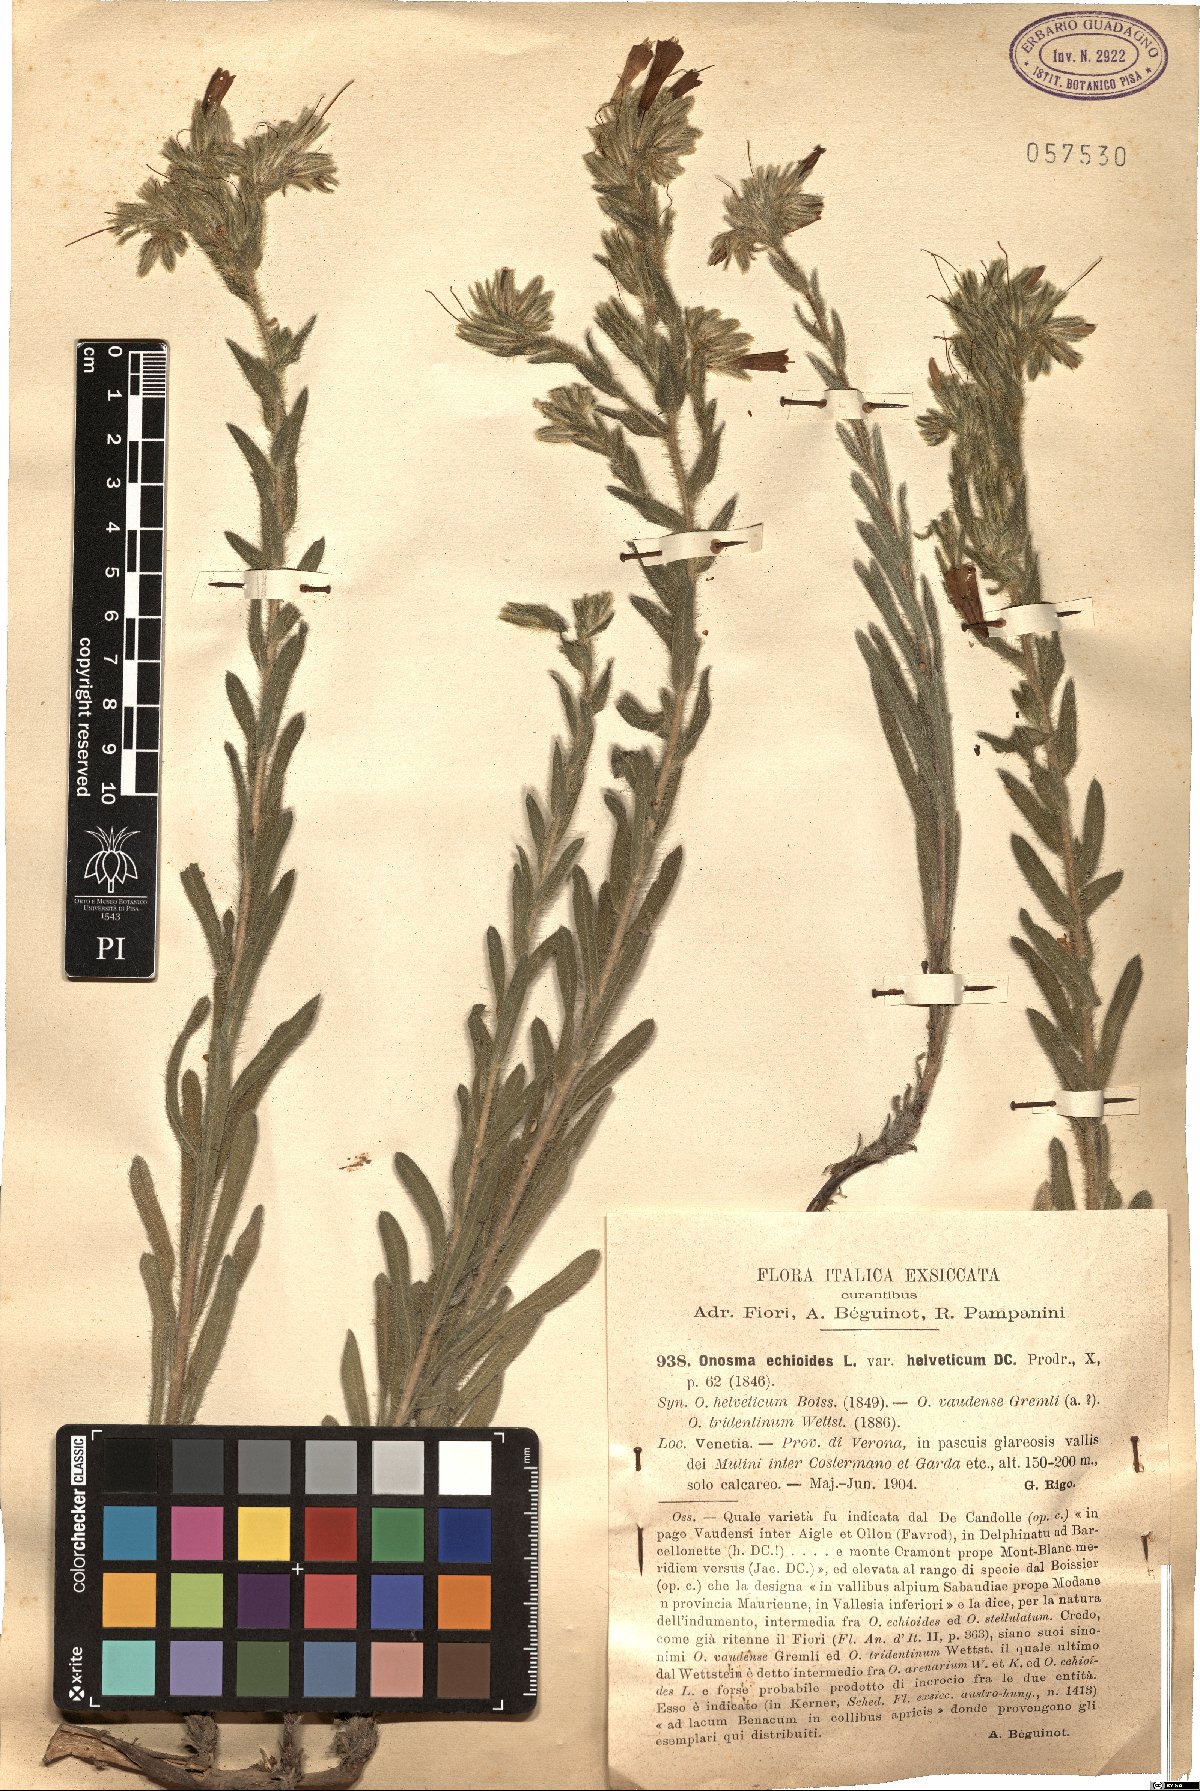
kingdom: Plantae
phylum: Tracheophyta
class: Magnoliopsida
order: Boraginales
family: Boraginaceae
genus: Onosma
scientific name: Onosma helvetica
